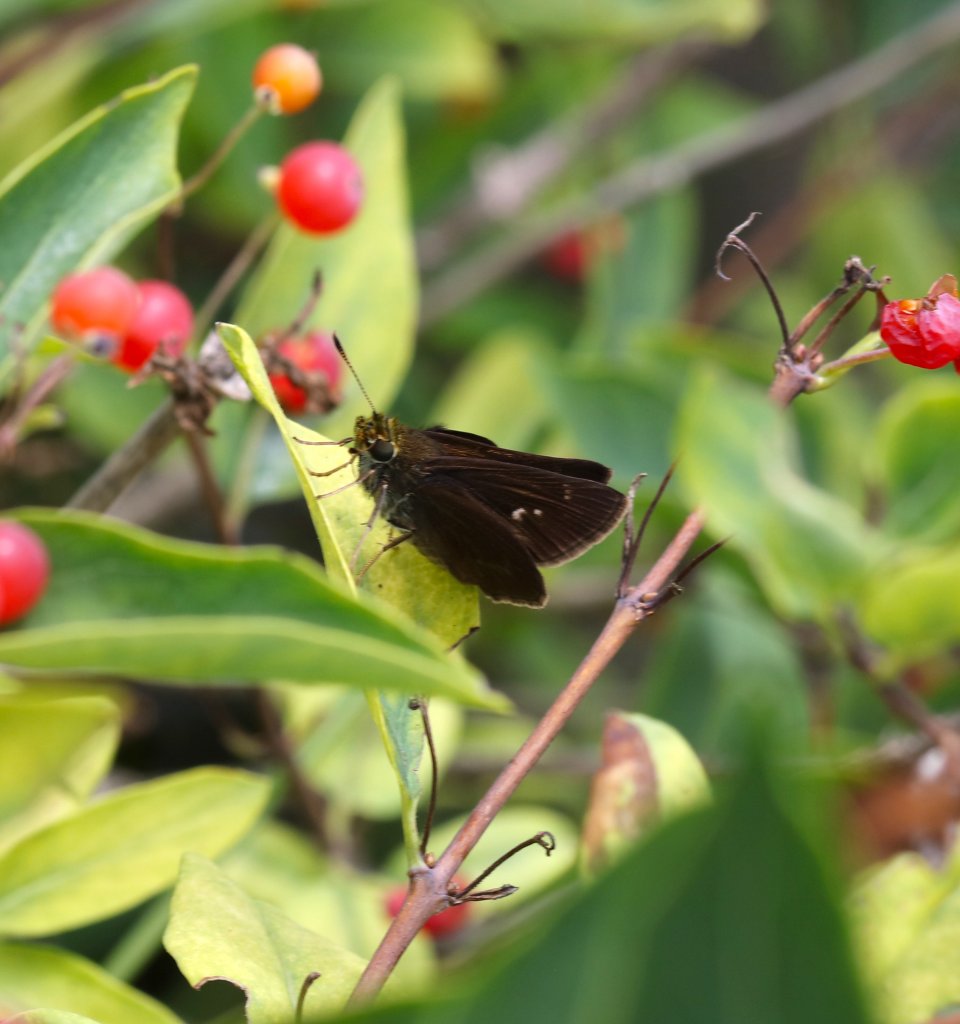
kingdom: Animalia
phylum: Arthropoda
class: Insecta
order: Lepidoptera
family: Hesperiidae
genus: Euphyes
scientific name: Euphyes vestris
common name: Dun Skipper
